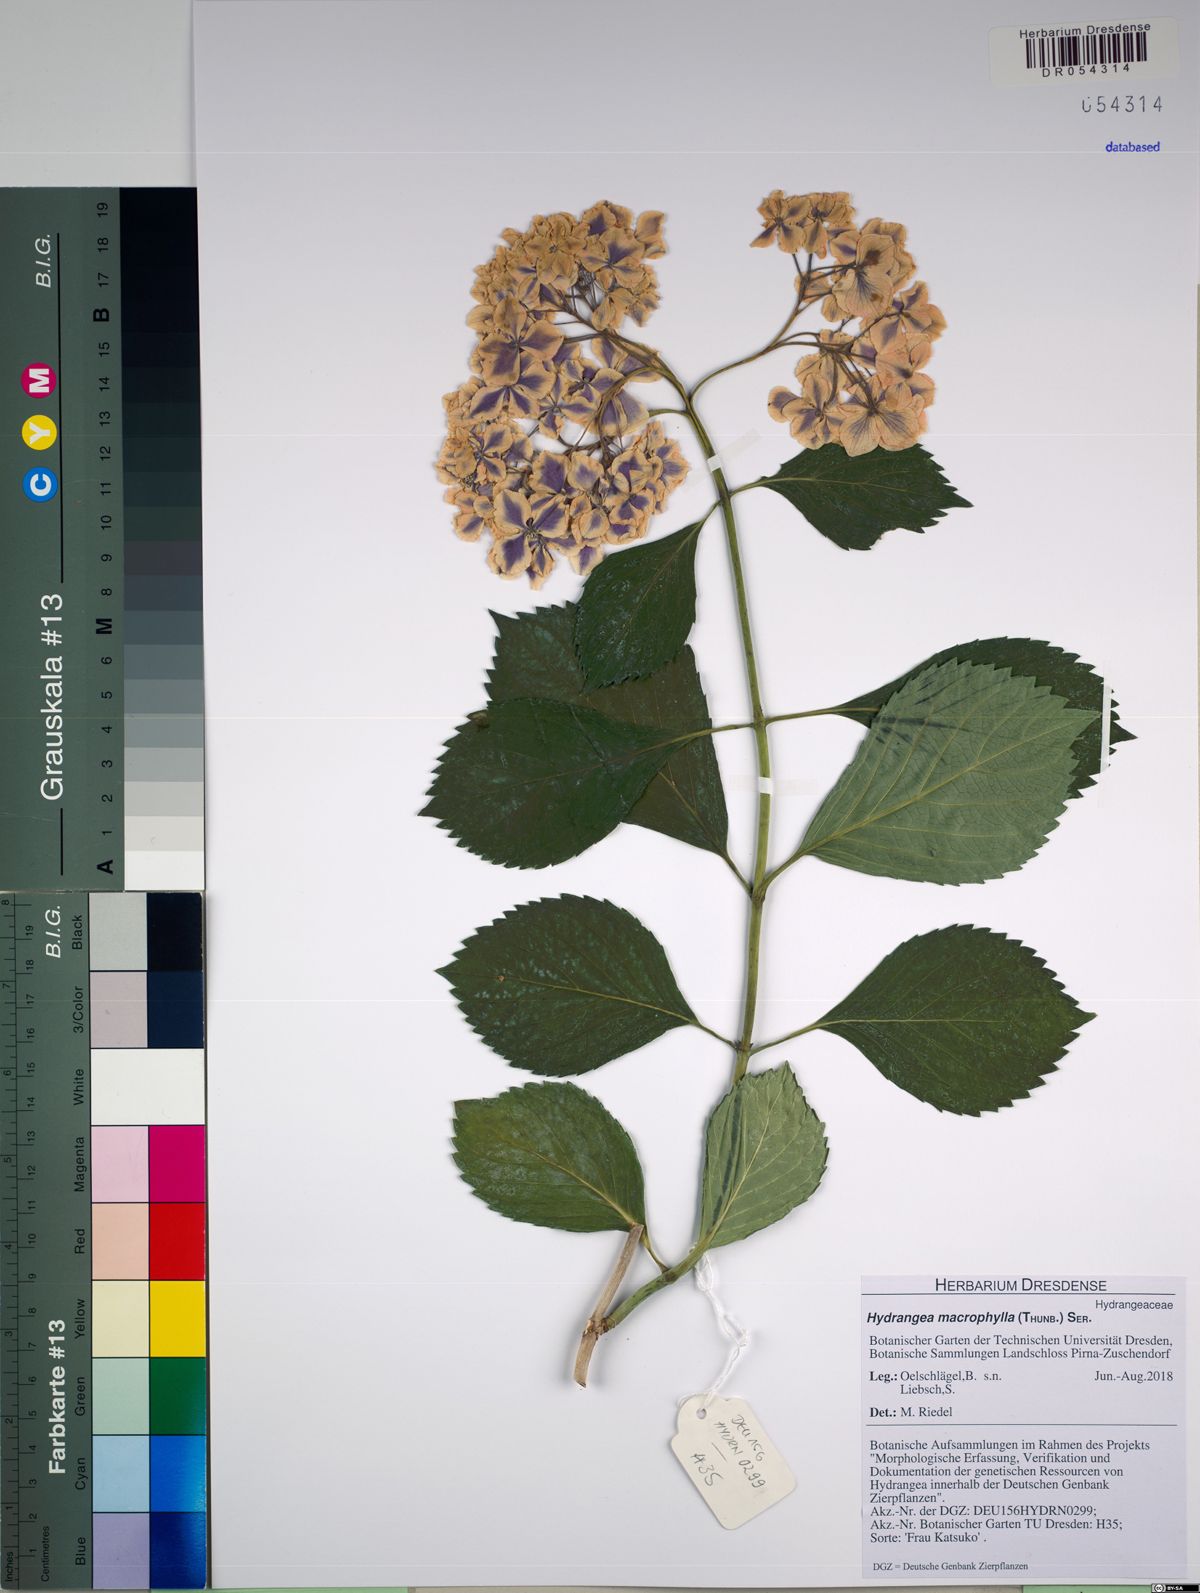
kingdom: Plantae
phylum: Tracheophyta
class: Magnoliopsida
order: Cornales
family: Hydrangeaceae
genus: Hydrangea
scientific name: Hydrangea macrophylla
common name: Hydrangea
